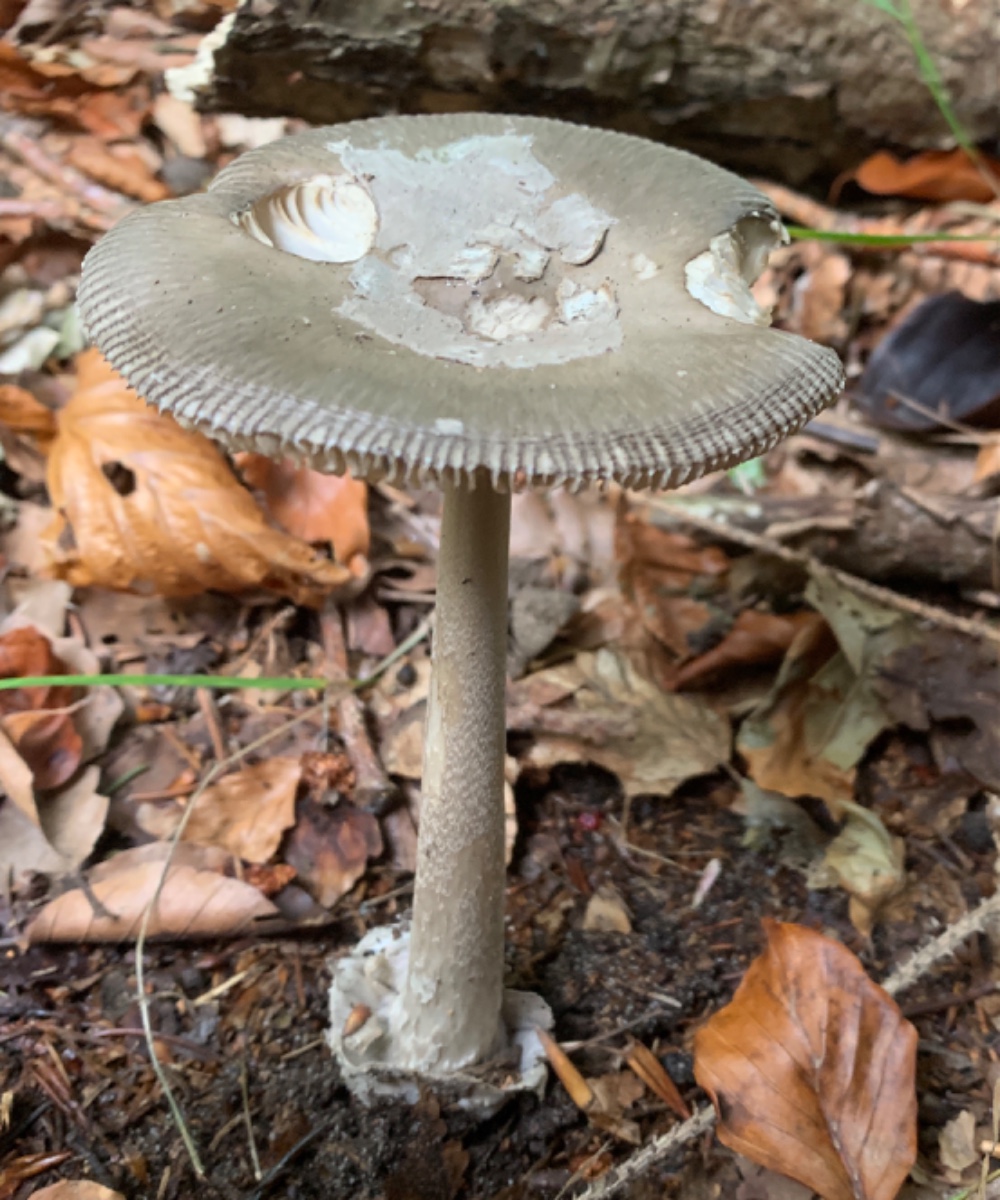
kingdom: Fungi
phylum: Basidiomycota
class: Agaricomycetes
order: Agaricales
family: Amanitaceae
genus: Amanita
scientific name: Amanita vaginata
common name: grå kam-fluesvamp
